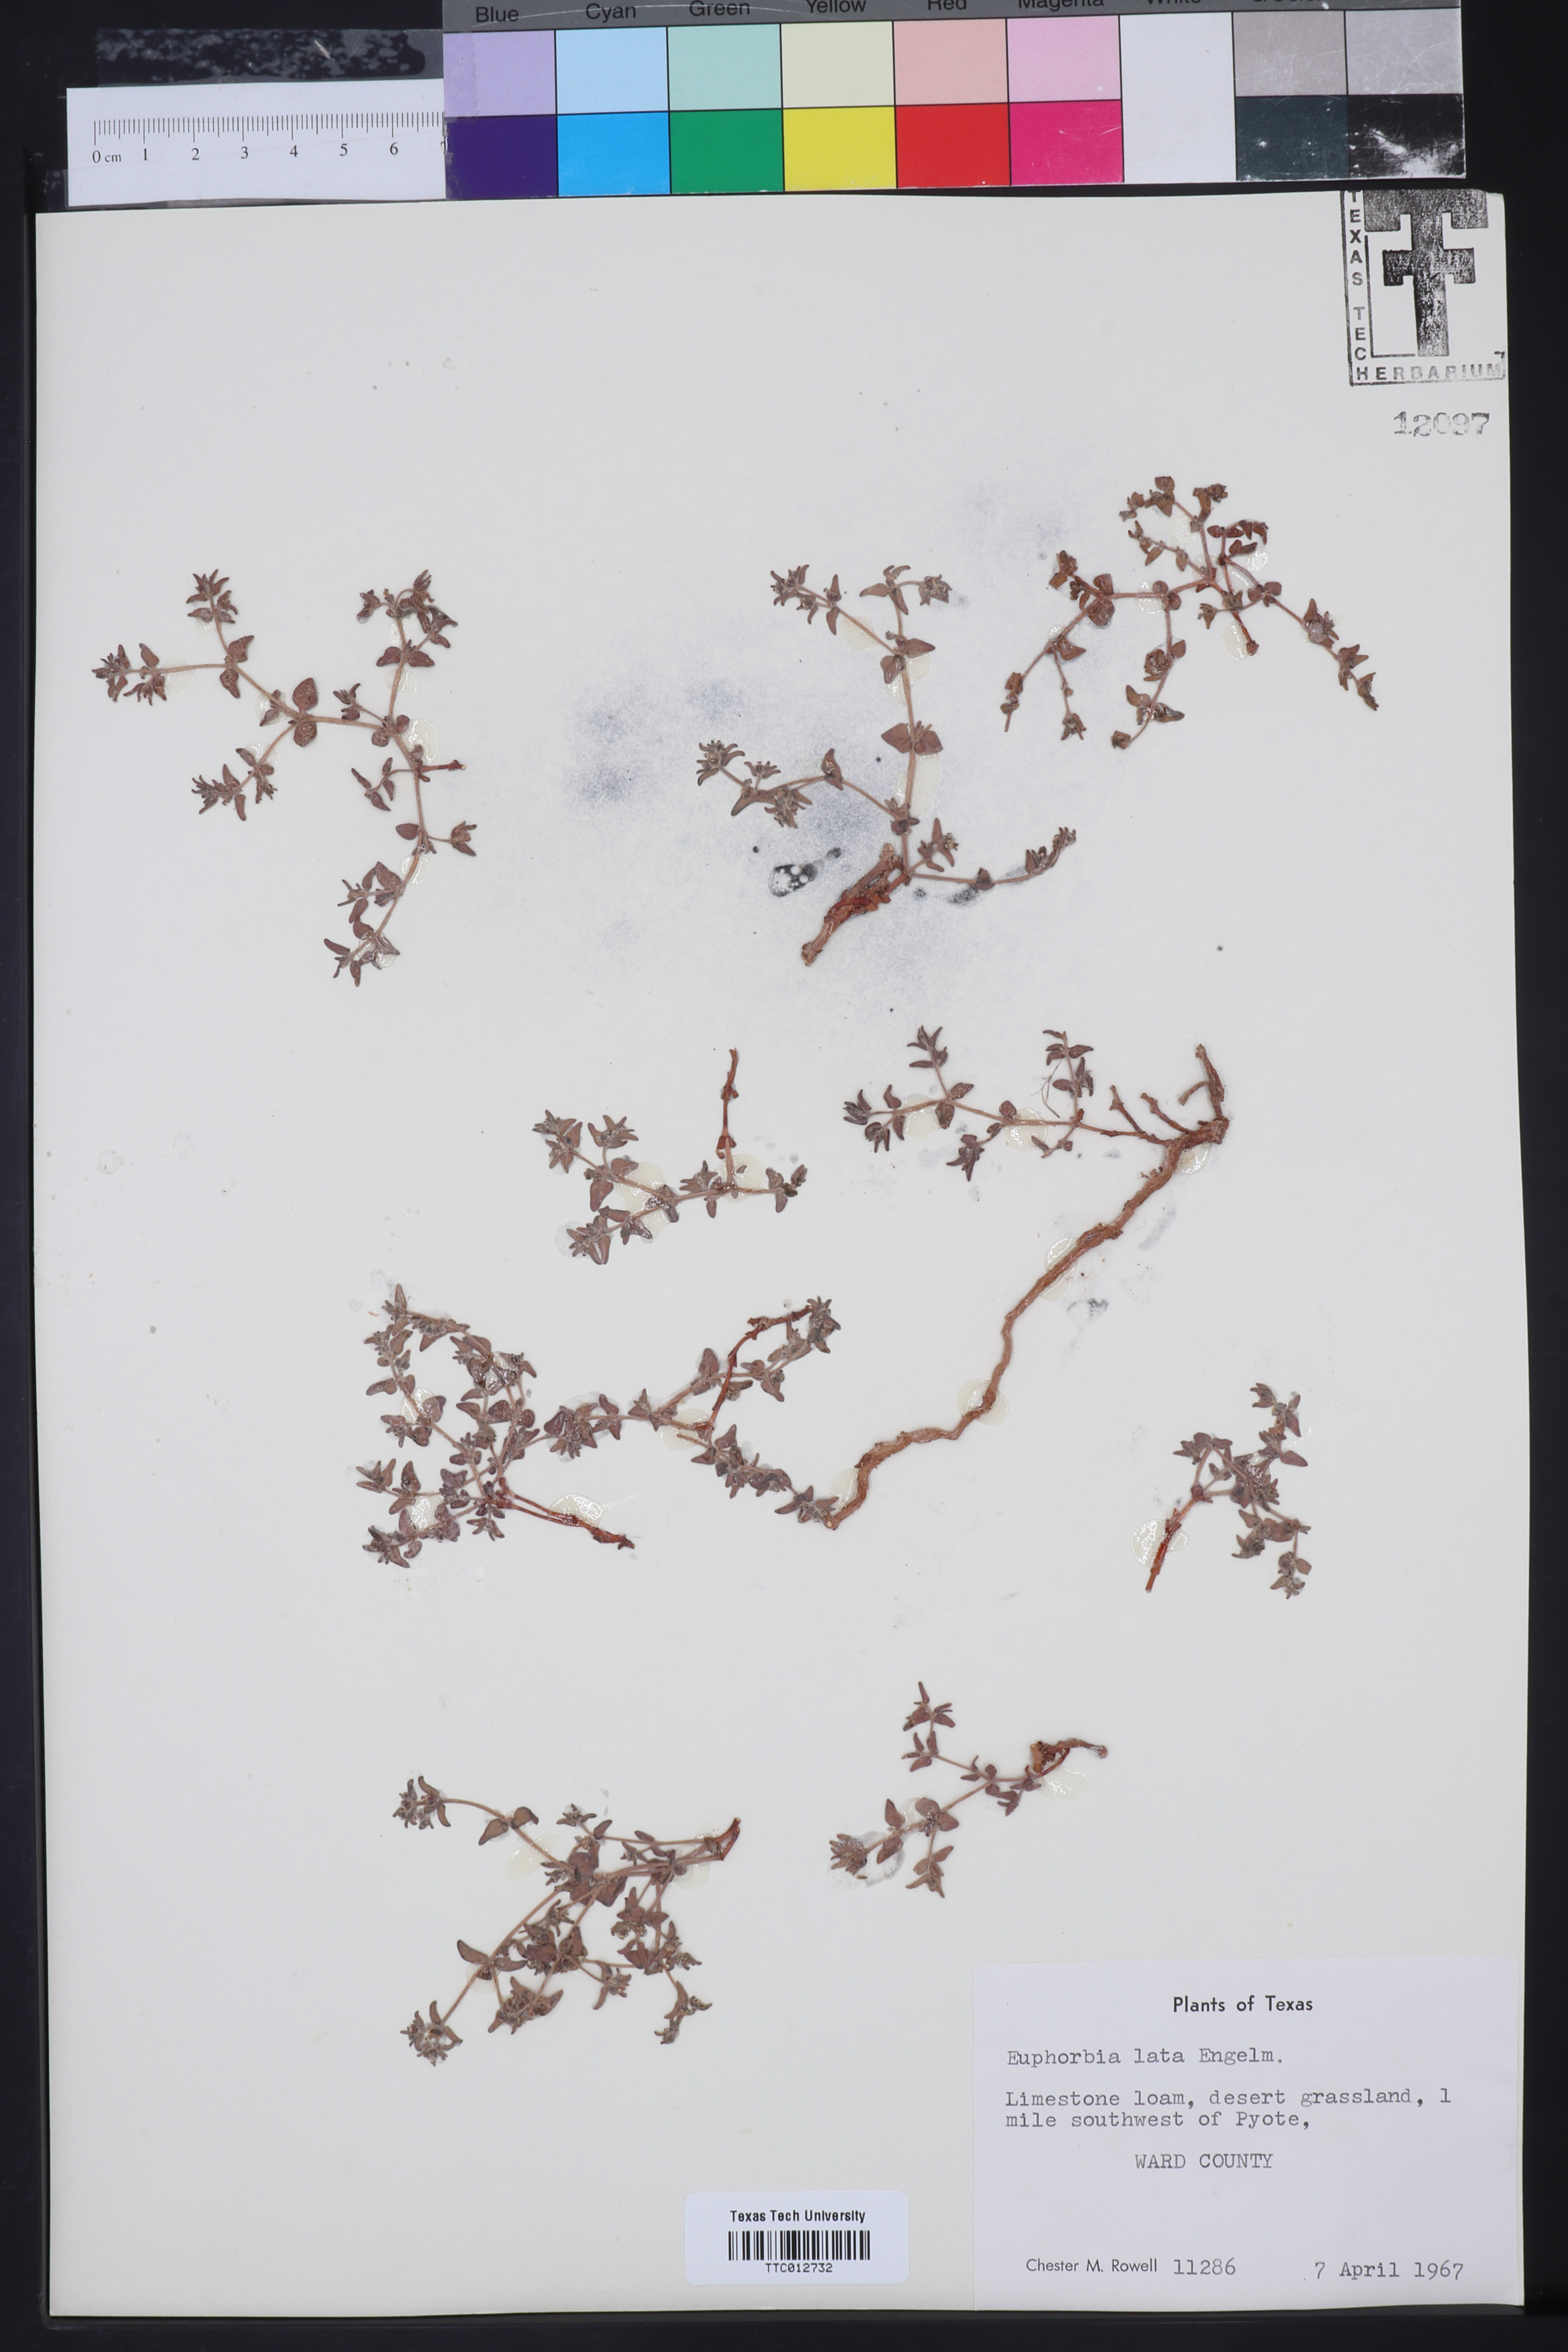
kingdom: Plantae
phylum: Tracheophyta
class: Magnoliopsida
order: Malpighiales
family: Euphorbiaceae
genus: Euphorbia
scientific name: Euphorbia lata
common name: Hoary euphorbia
